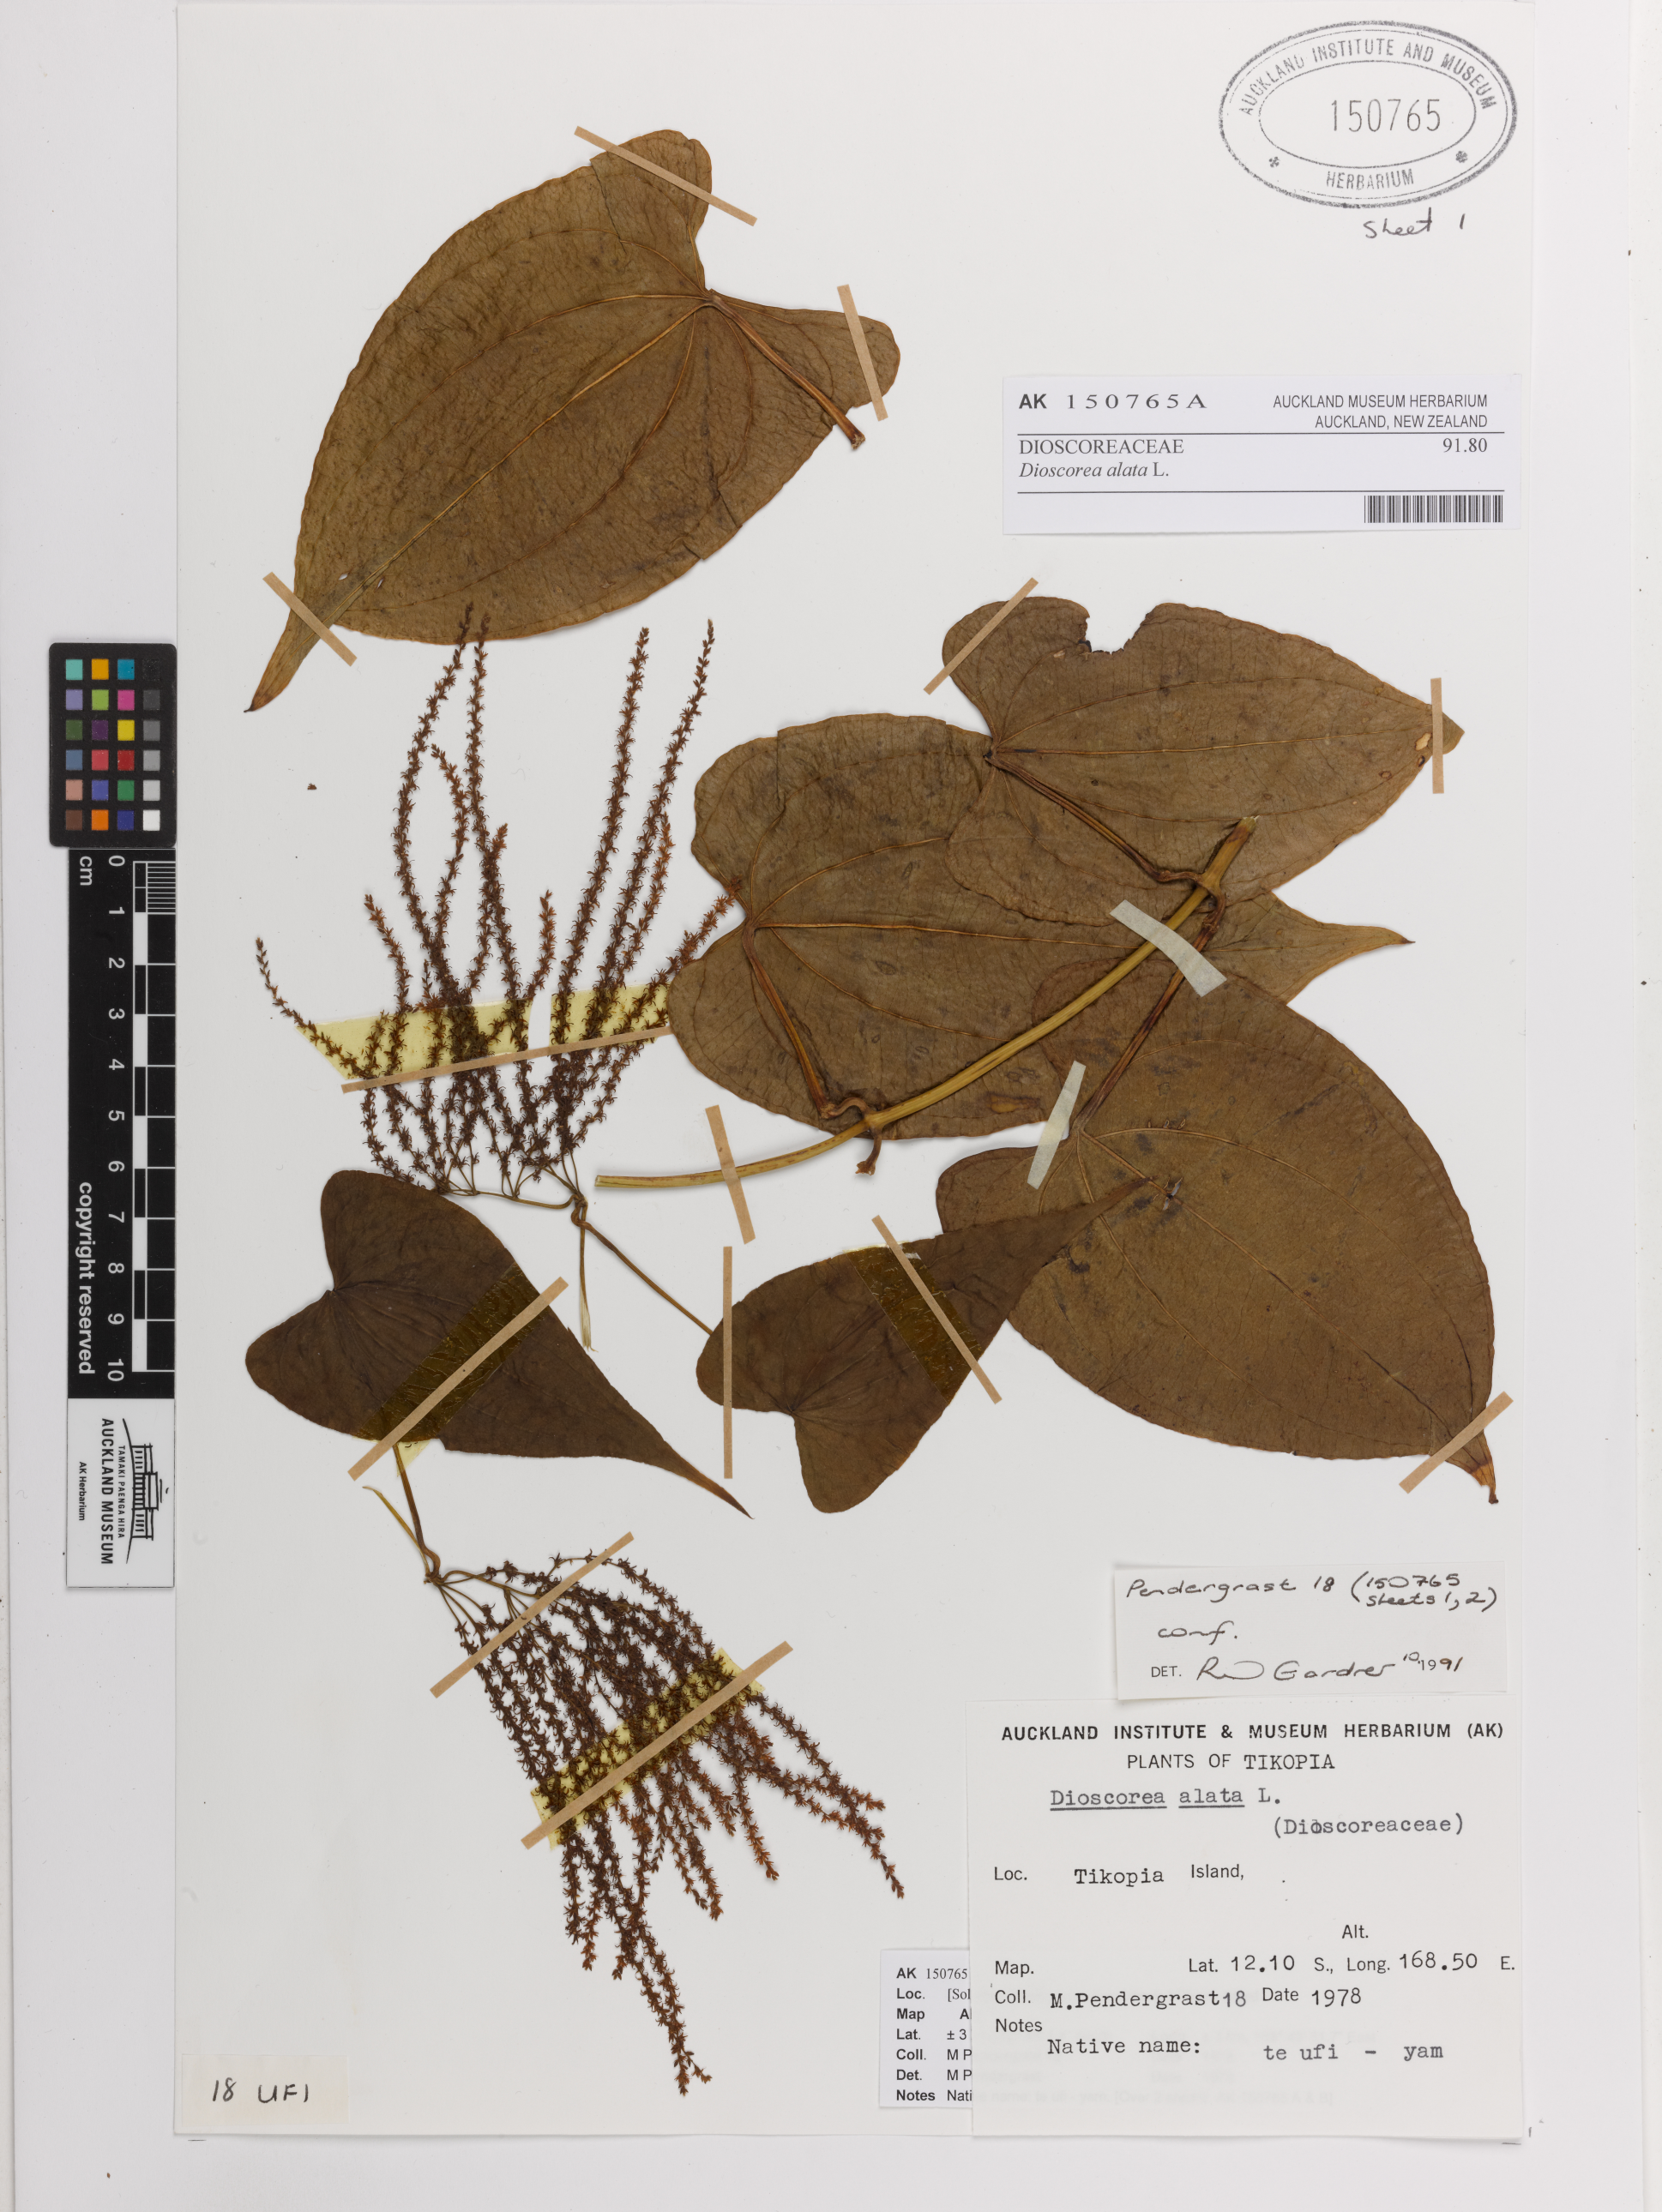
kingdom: Plantae
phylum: Tracheophyta
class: Liliopsida
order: Dioscoreales
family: Dioscoreaceae
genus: Dioscorea
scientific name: Dioscorea alata
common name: Water yam
